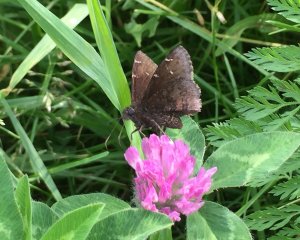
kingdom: Animalia
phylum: Arthropoda
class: Insecta
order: Lepidoptera
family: Hesperiidae
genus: Autochton
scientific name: Autochton
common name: Northern Cloudywing
